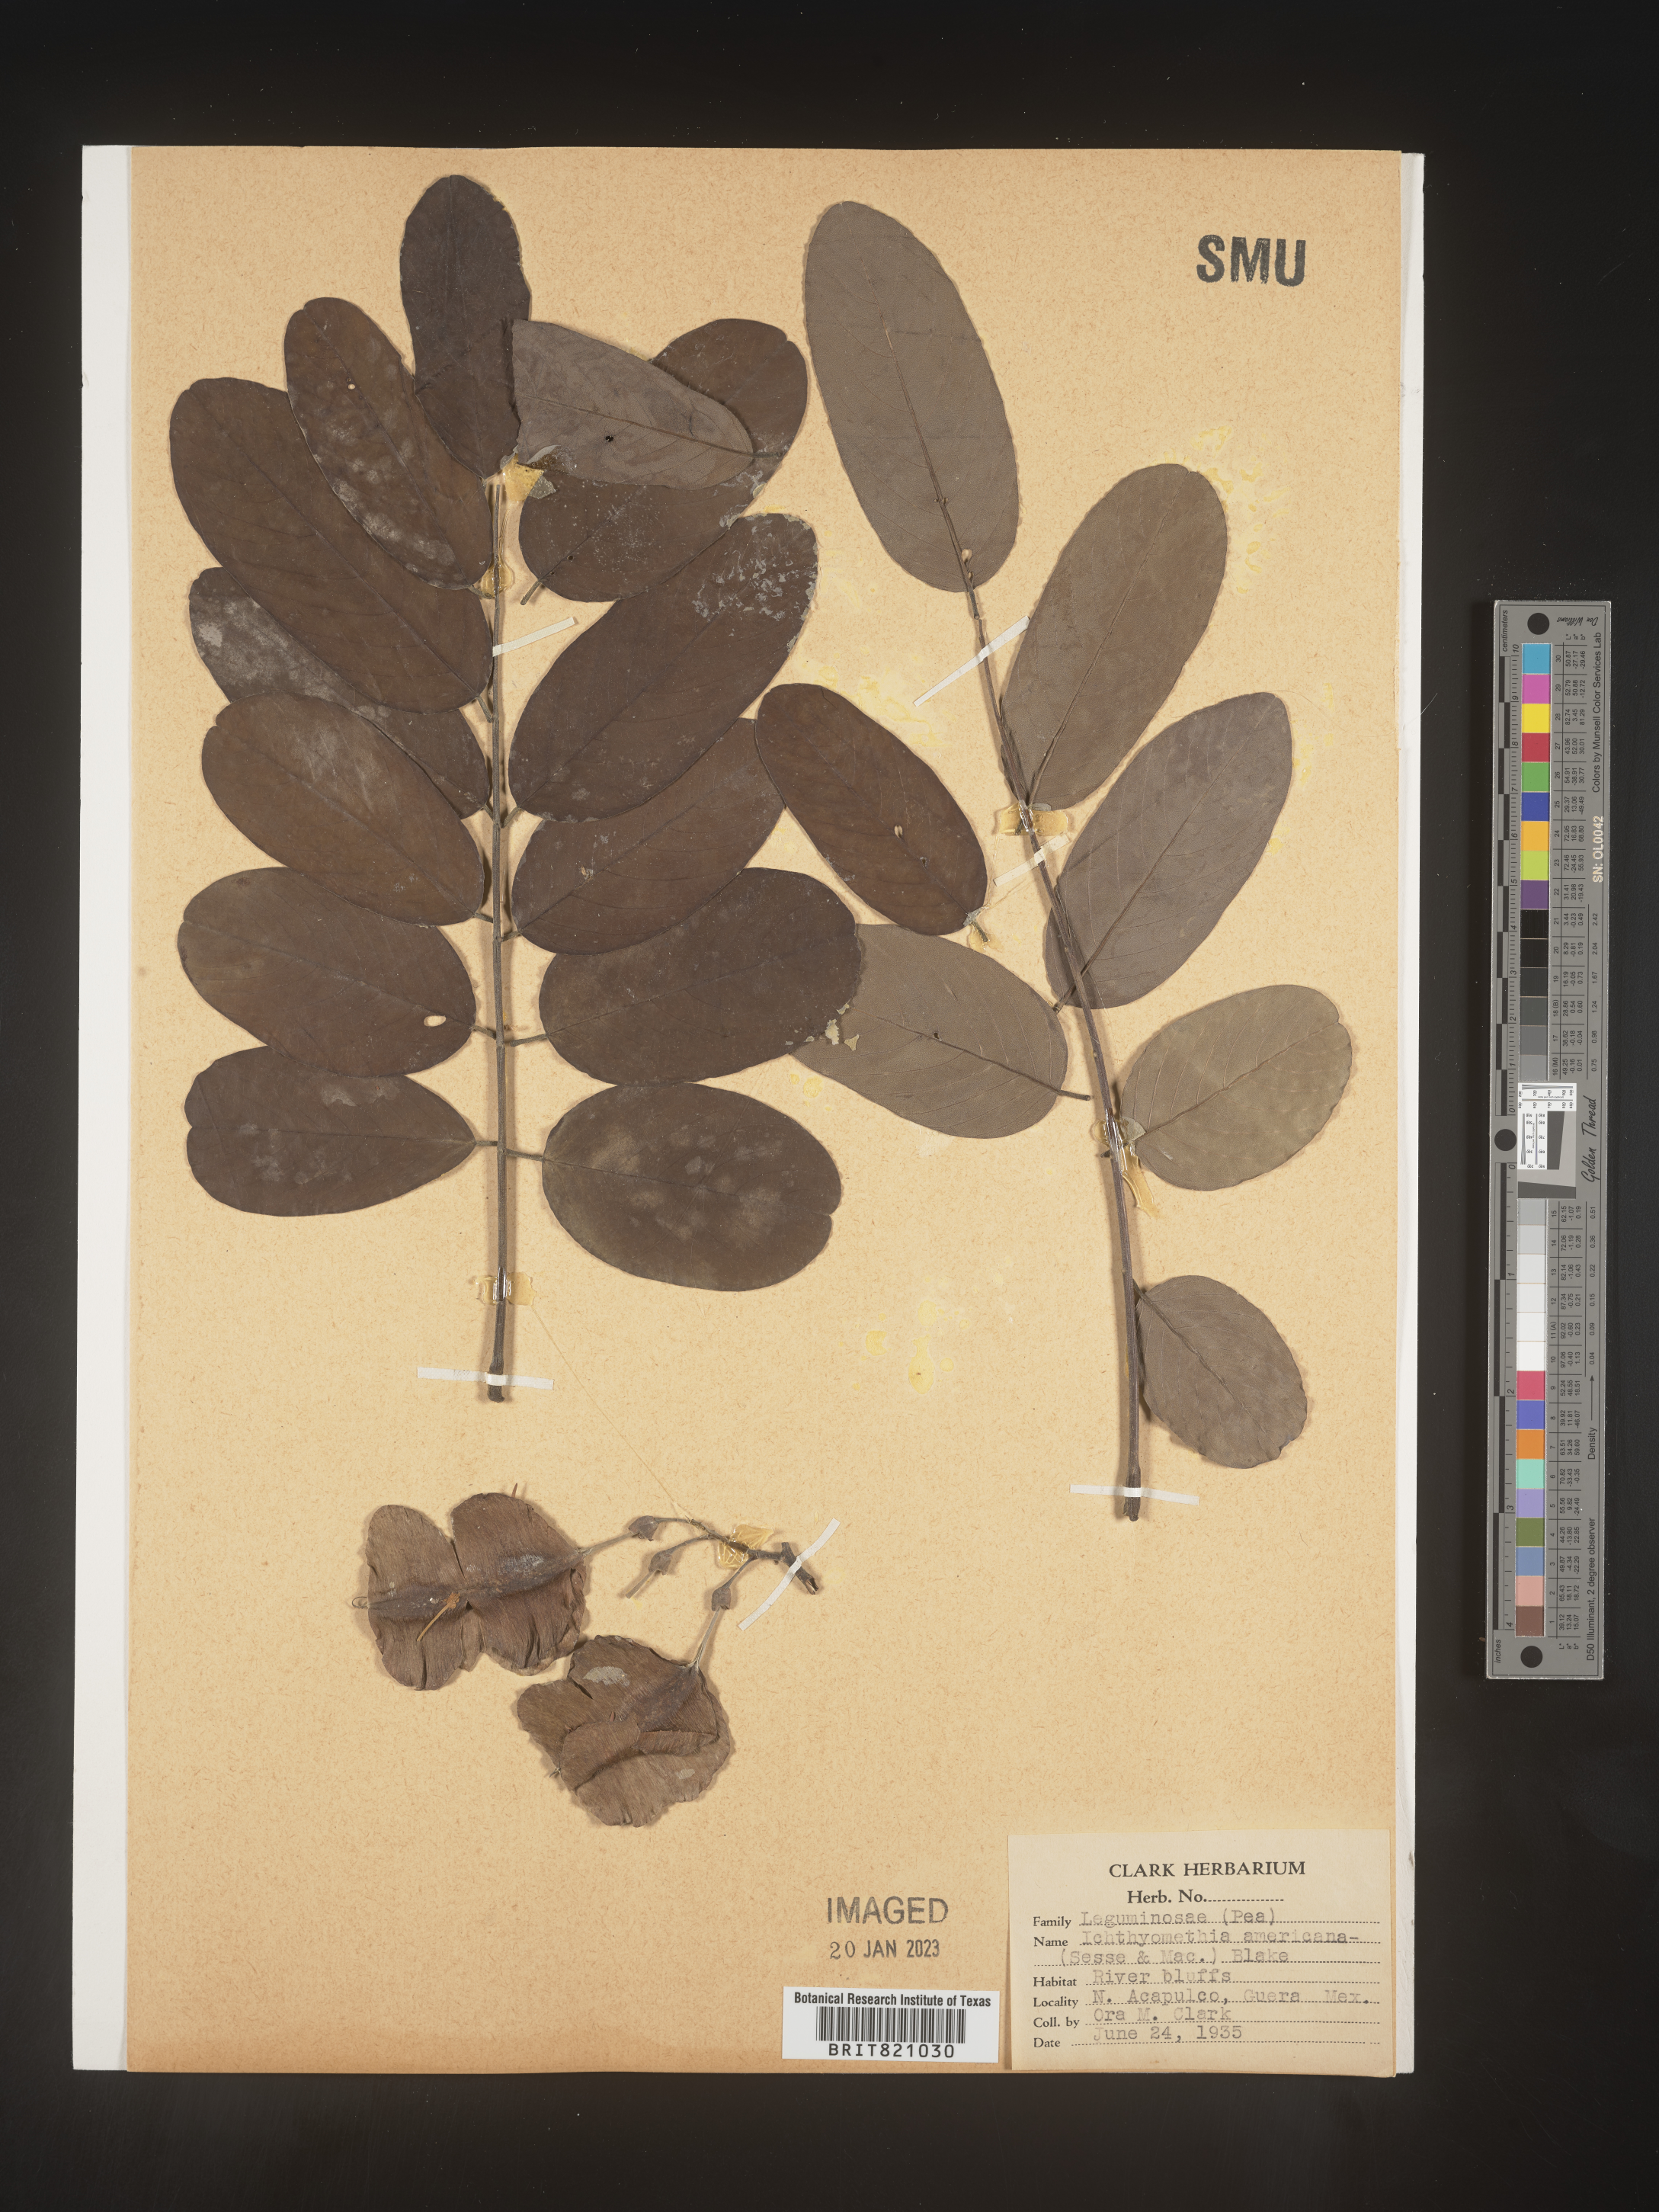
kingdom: Plantae
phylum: Tracheophyta
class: Magnoliopsida
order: Fabales
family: Fabaceae
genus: Ichthyomethia
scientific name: Ichthyomethia
